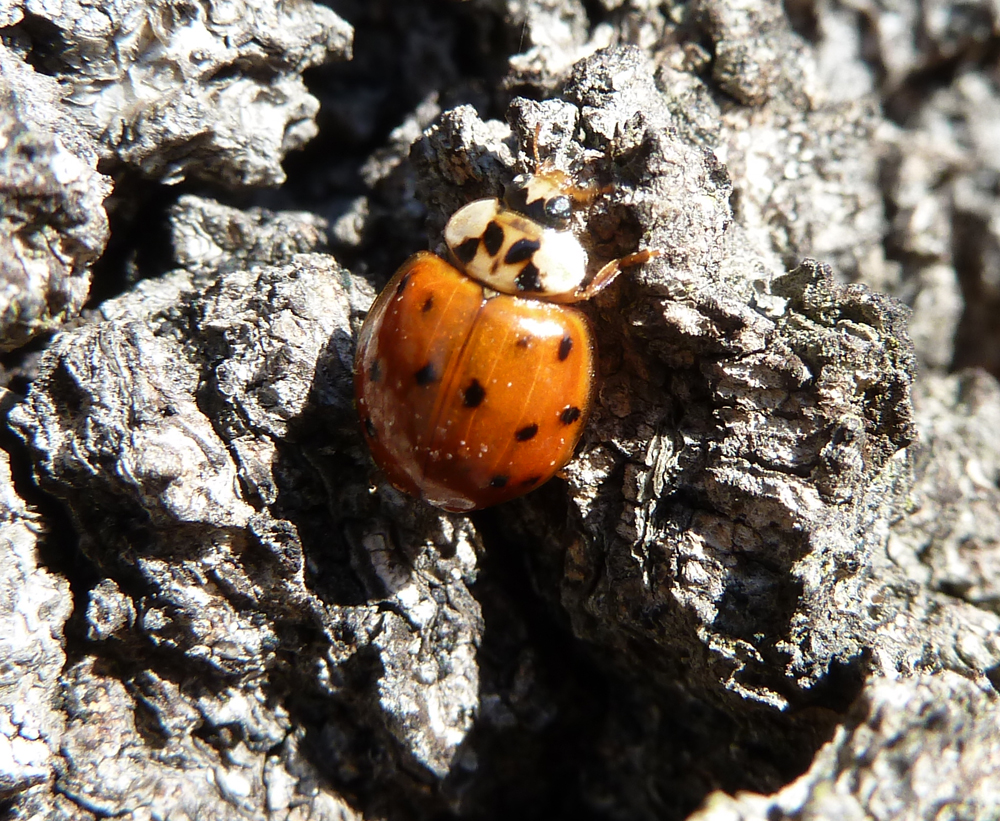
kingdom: Animalia
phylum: Arthropoda
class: Insecta
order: Coleoptera
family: Coccinellidae
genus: Harmonia
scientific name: Harmonia axyridis
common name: Harlequin ladybird
